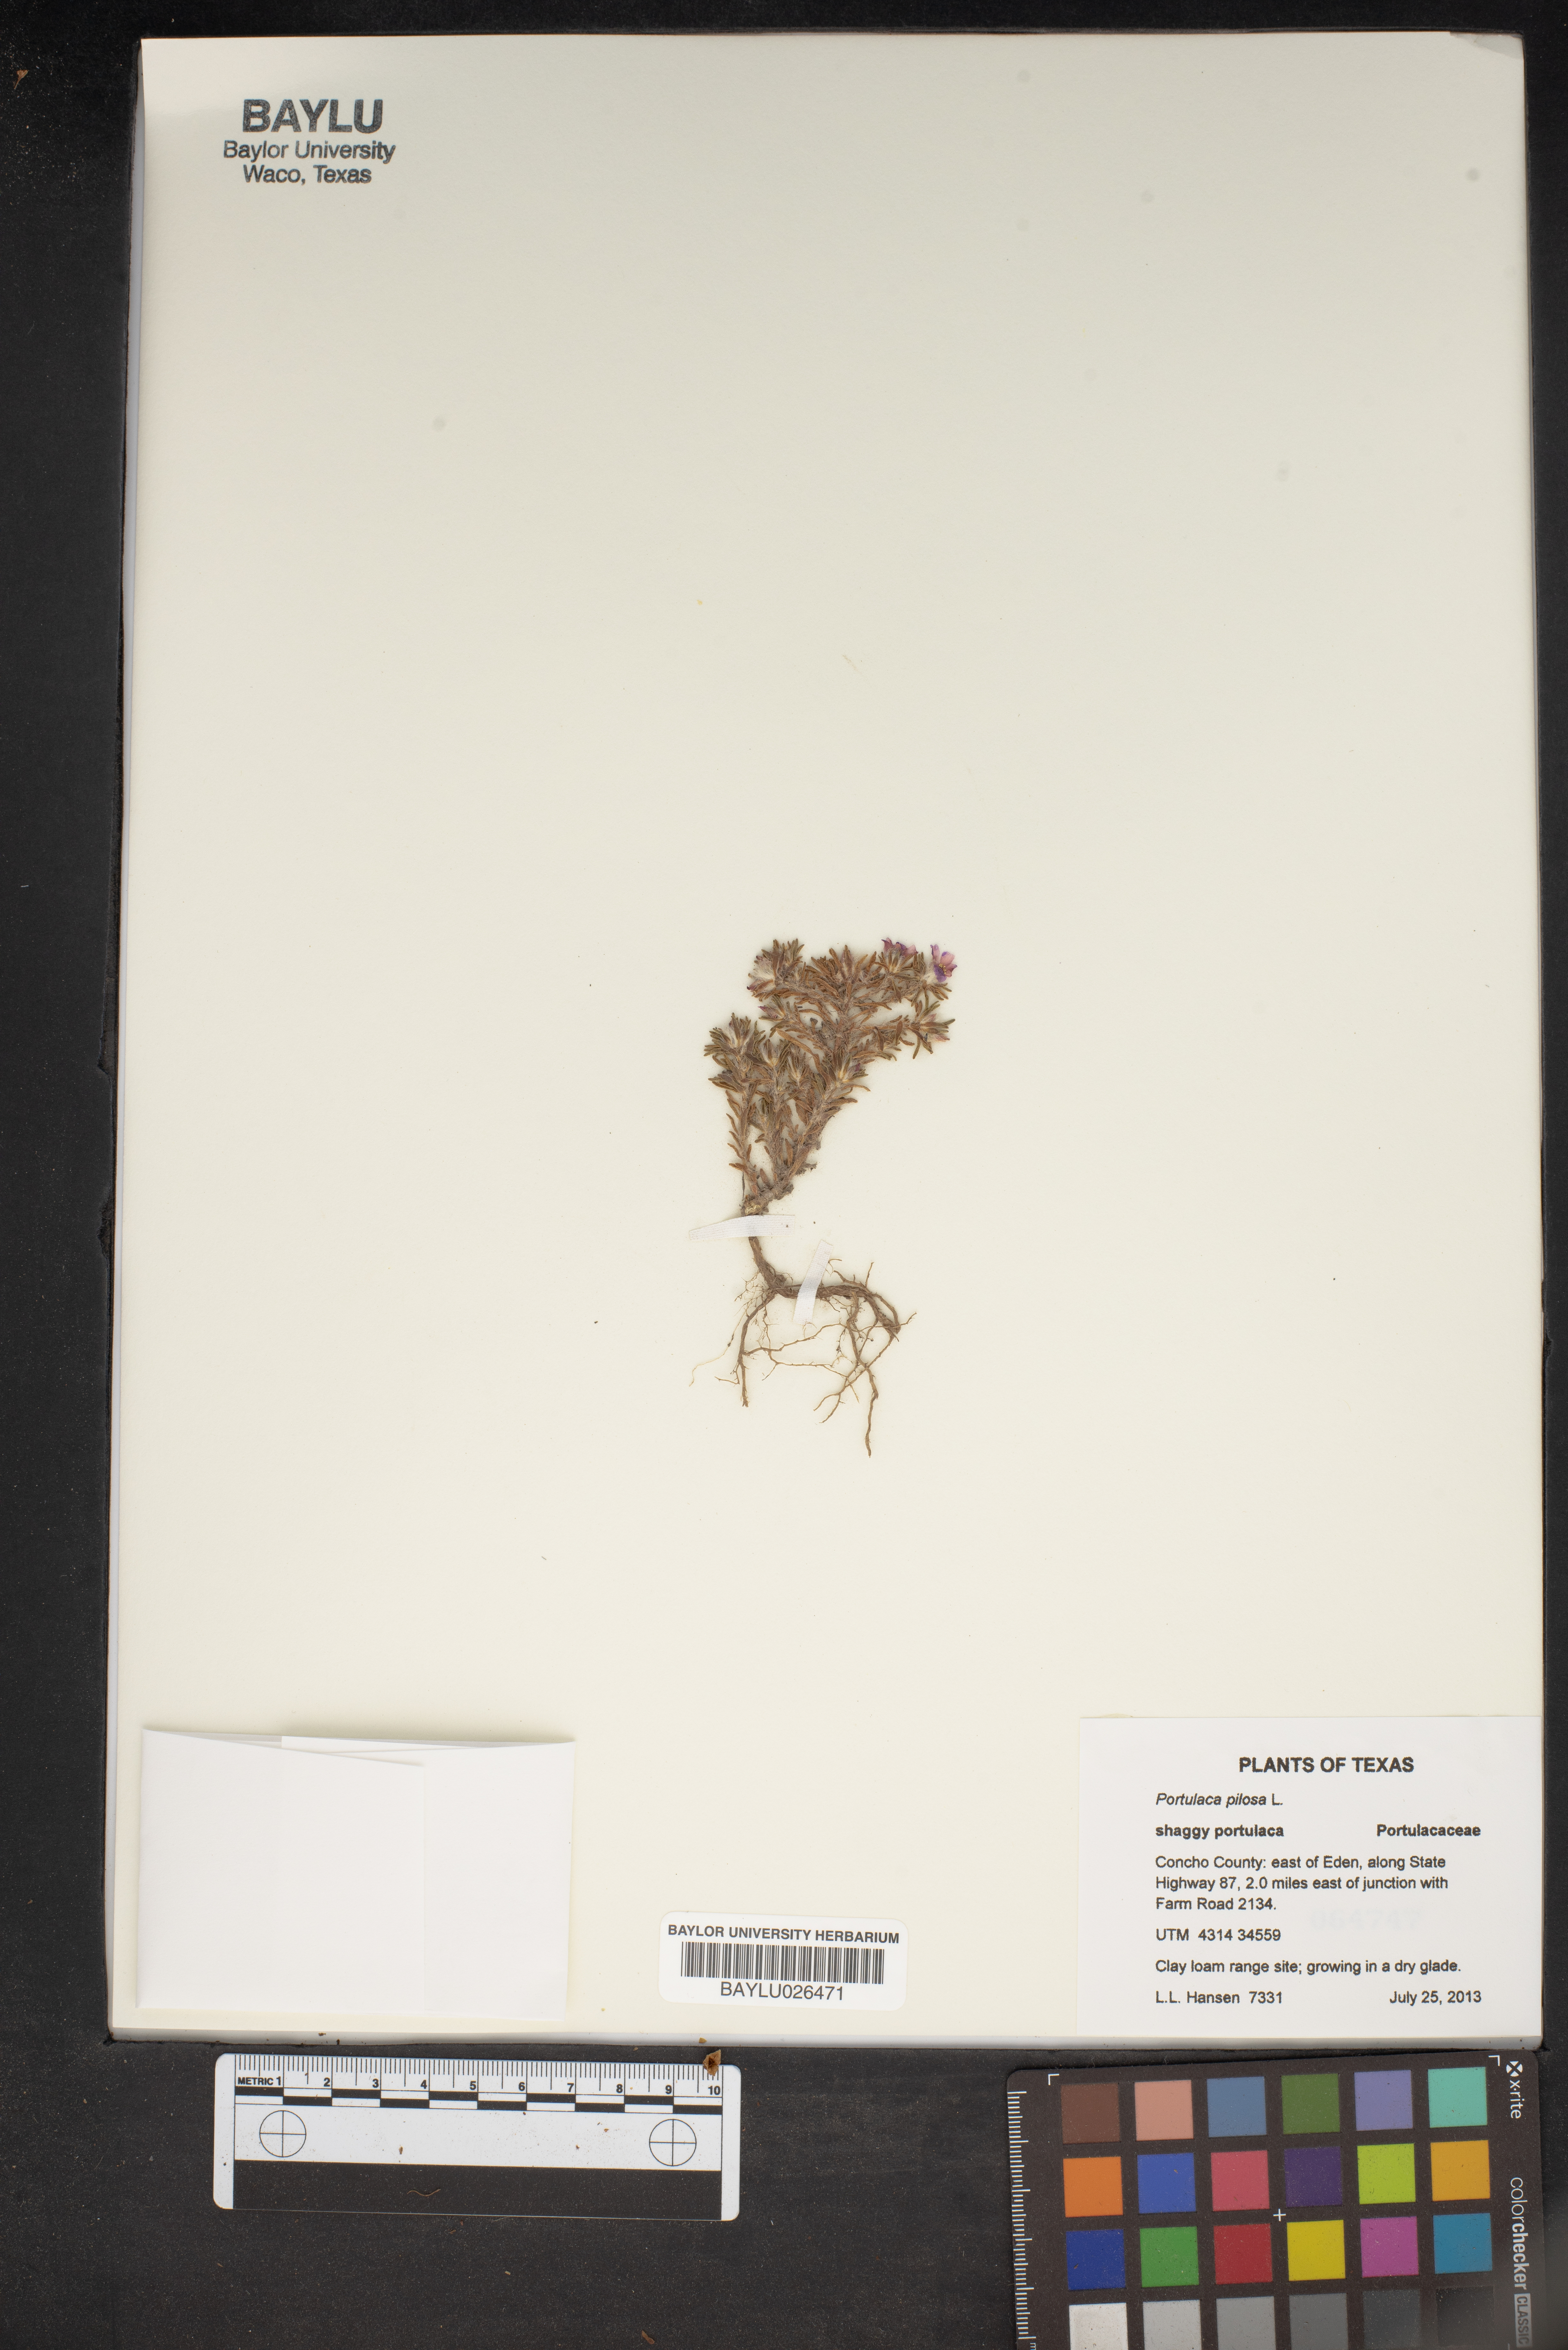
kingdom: Plantae
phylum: Tracheophyta
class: Magnoliopsida
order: Caryophyllales
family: Portulacaceae
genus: Portulaca
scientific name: Portulaca pilosa
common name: Kiss me quick
